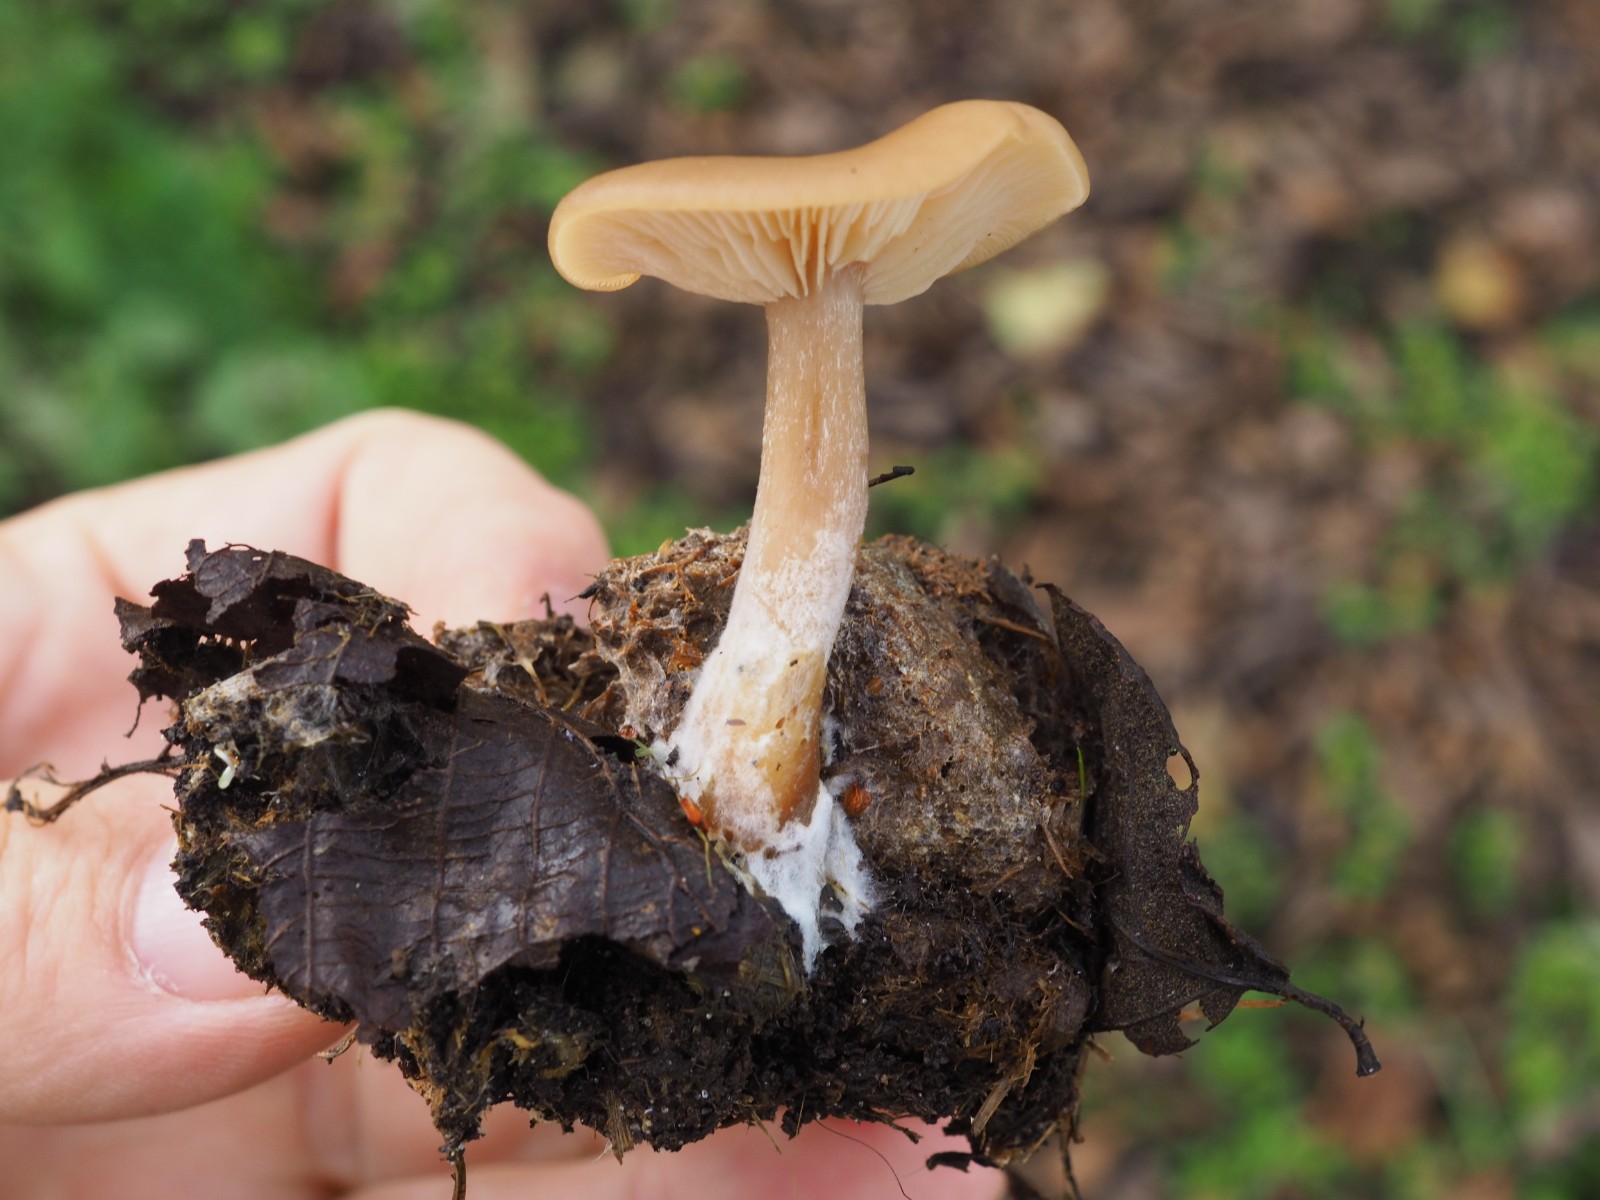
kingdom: Fungi
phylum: Basidiomycota
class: Agaricomycetes
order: Agaricales
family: Tricholomataceae
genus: Clitocybe
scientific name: Clitocybe amarescens
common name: gødnings-tragthat
